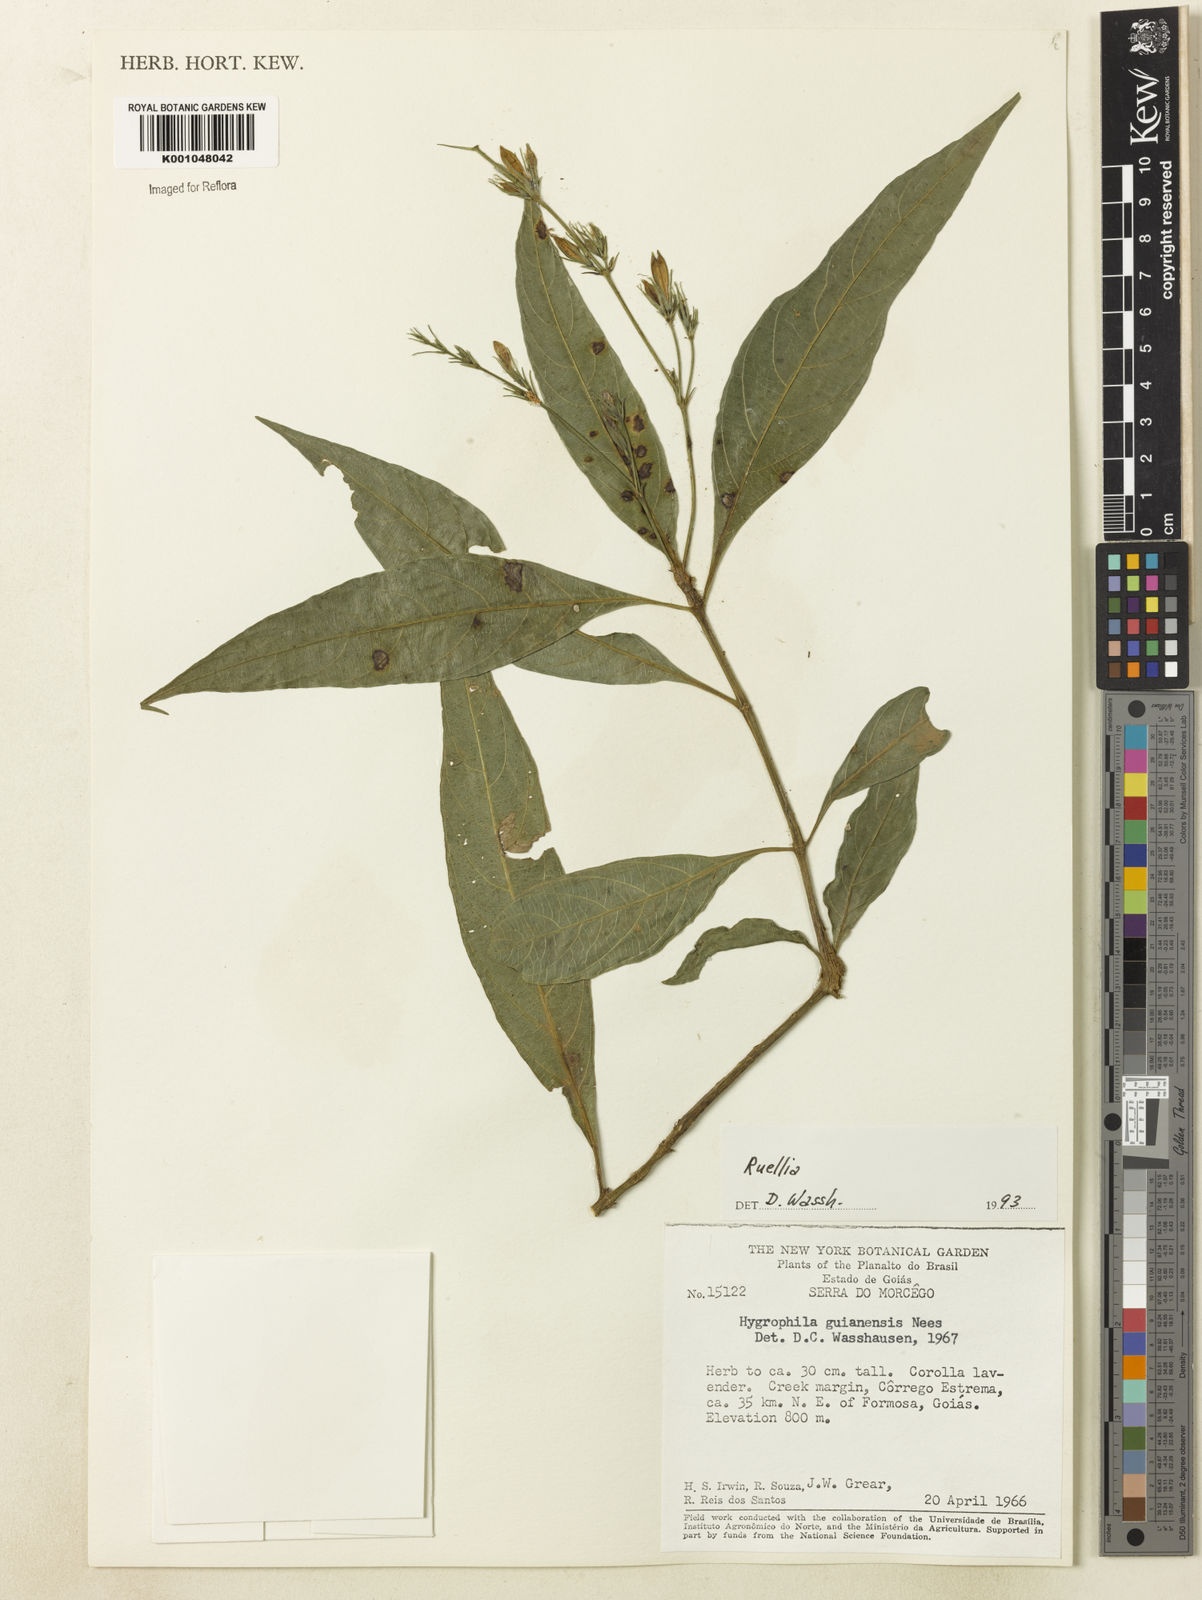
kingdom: Plantae
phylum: Tracheophyta
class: Magnoliopsida
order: Lamiales
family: Acanthaceae
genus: Ruellia
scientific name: Ruellia costata
